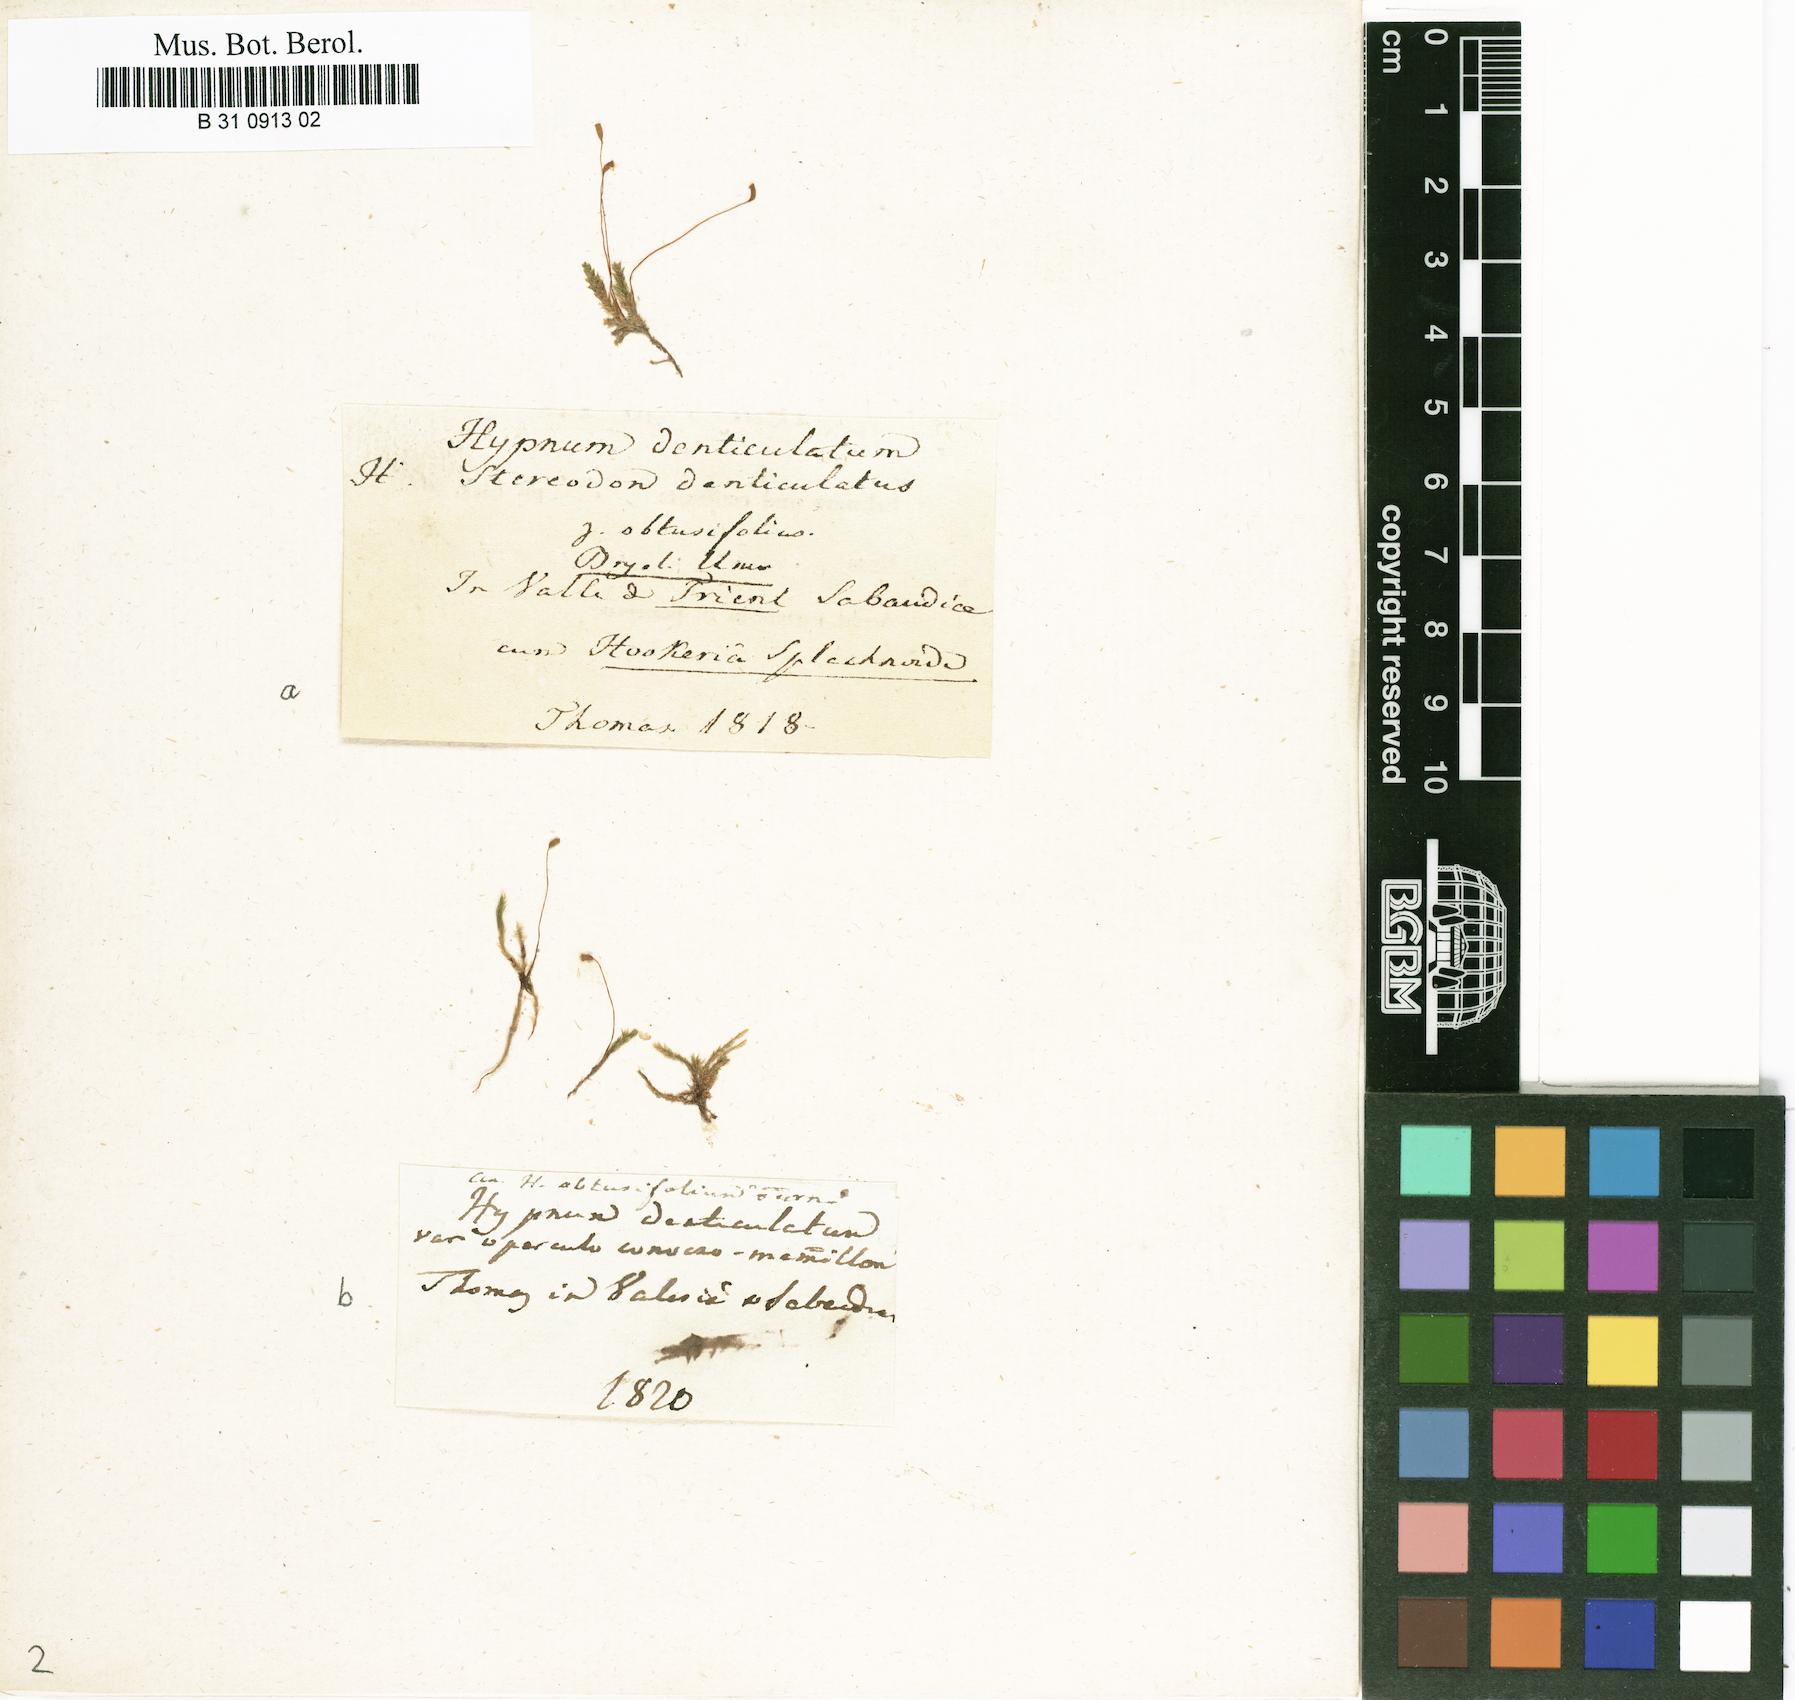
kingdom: Plantae
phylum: Bryophyta
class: Bryopsida
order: Hypnales
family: Plagiotheciaceae
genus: Plagiothecium
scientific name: Plagiothecium denticulatum
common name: Dented silk moss
